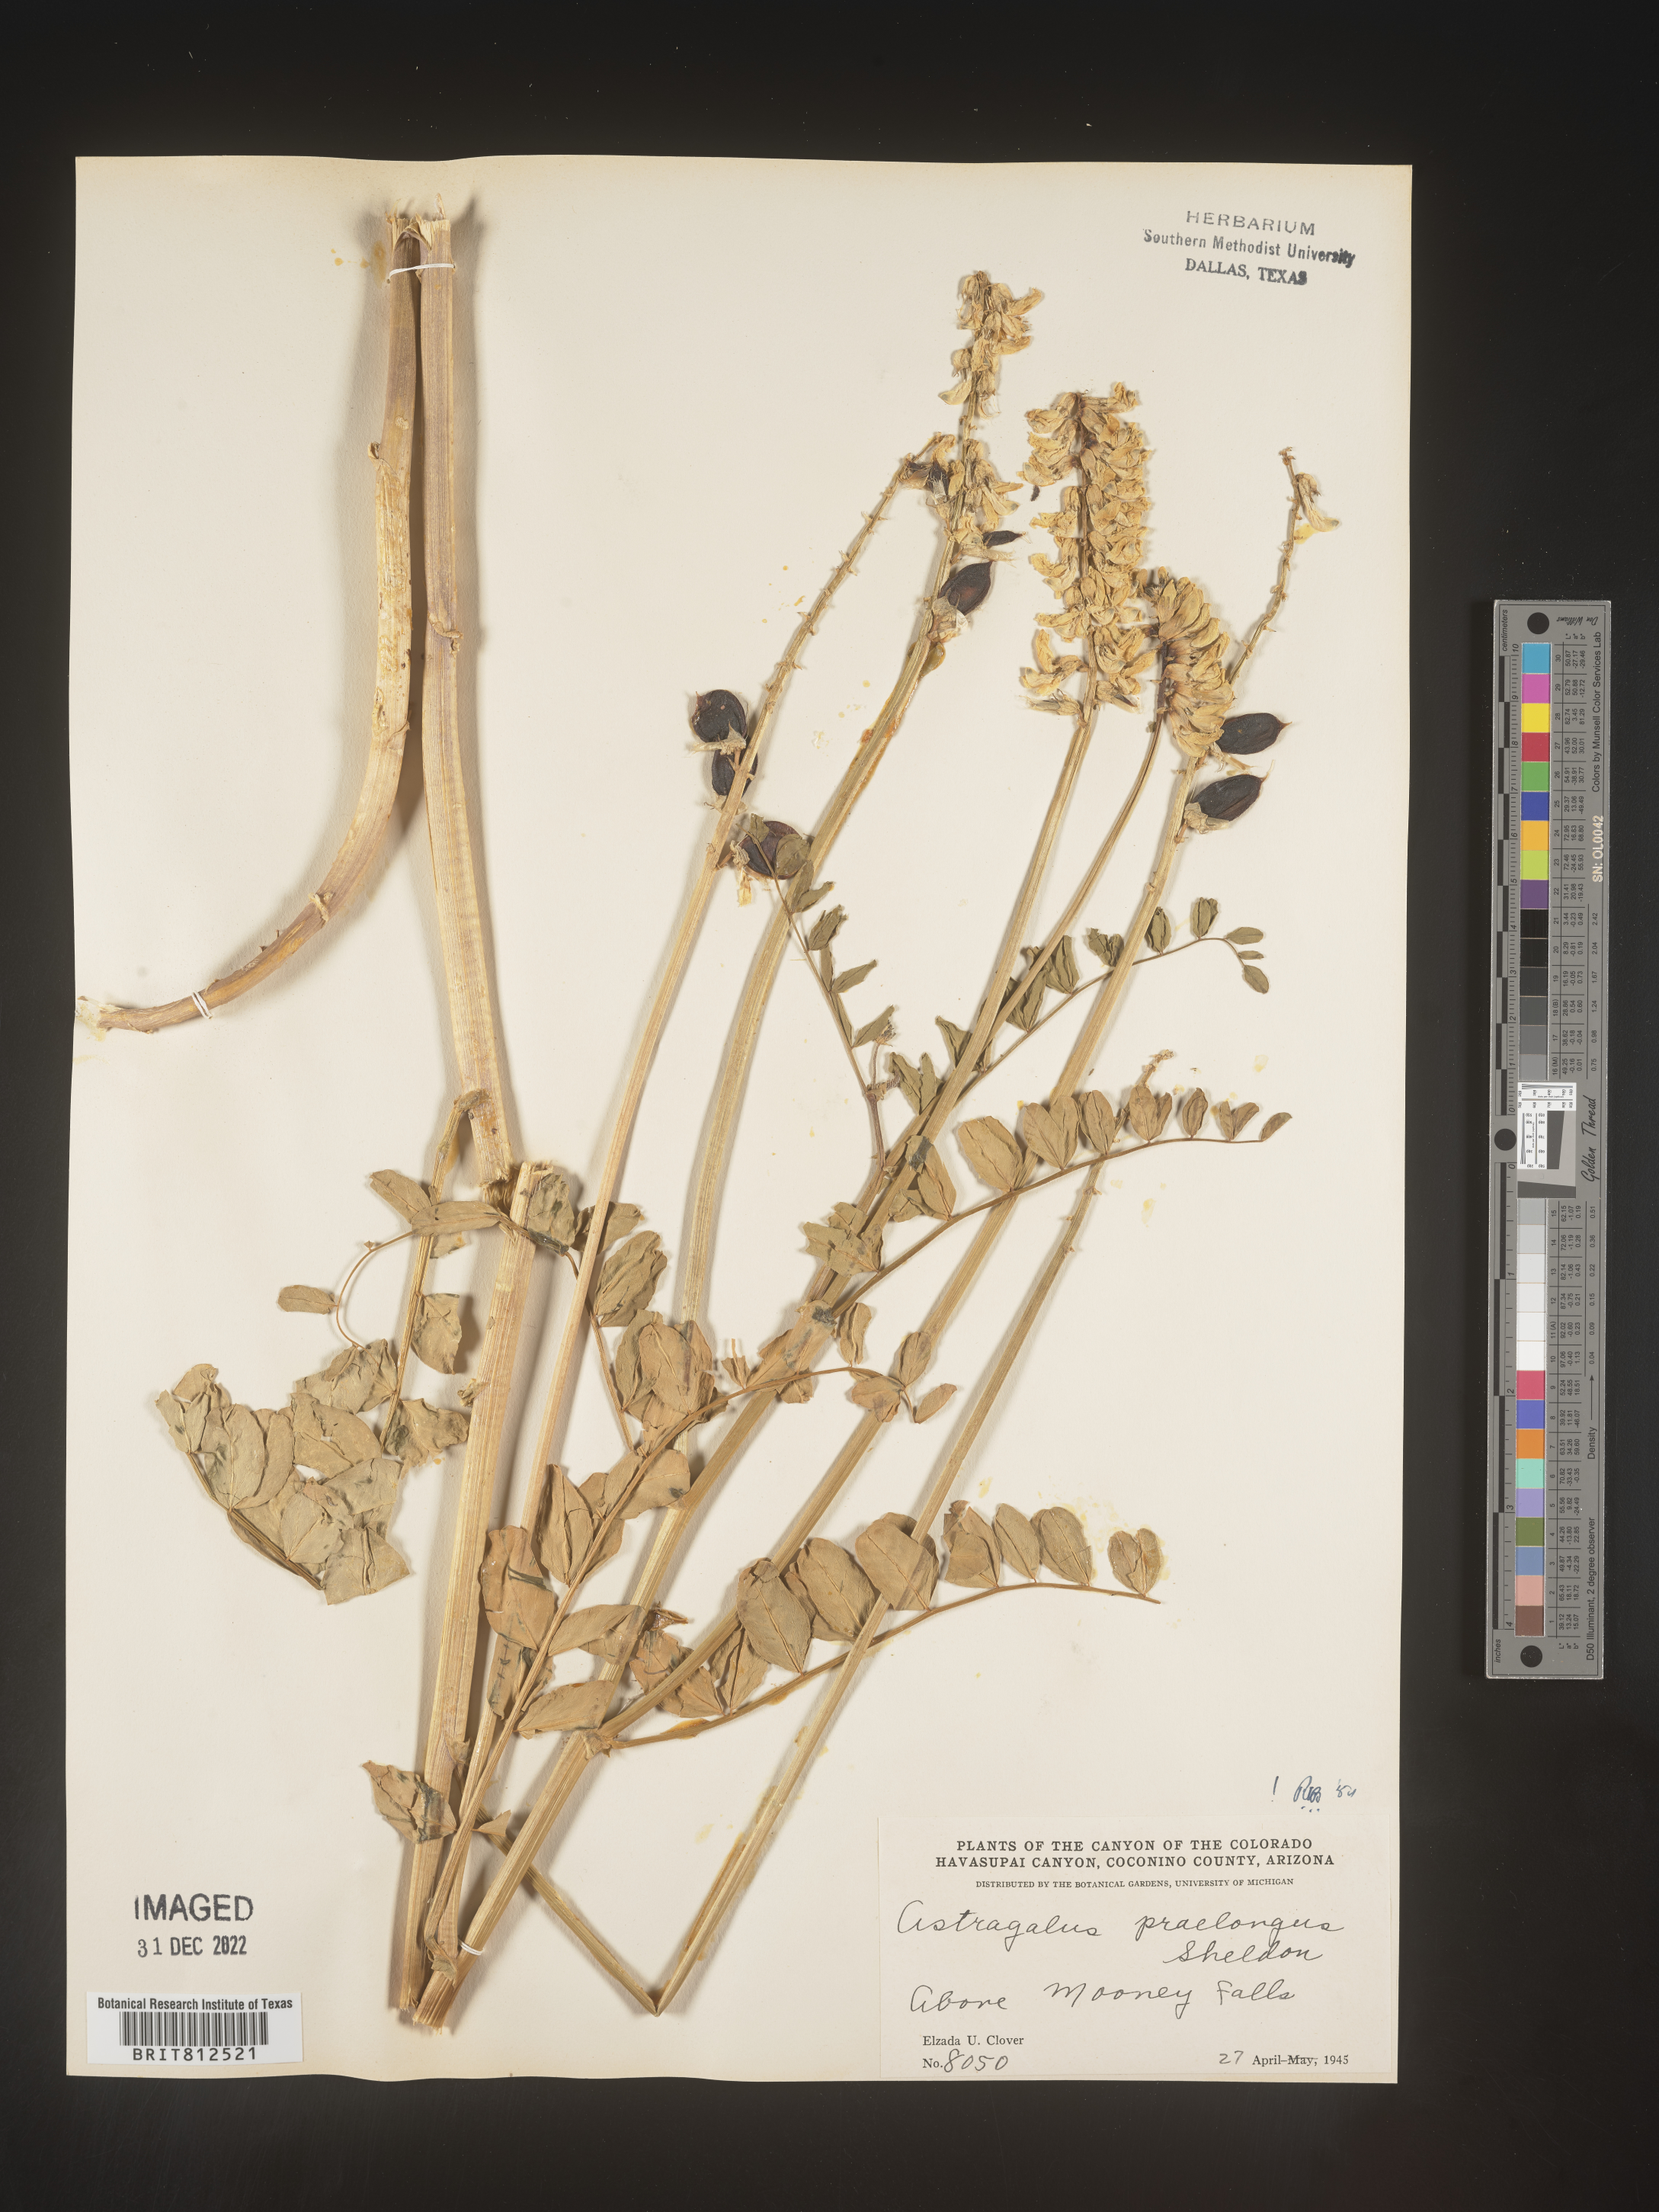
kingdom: Plantae
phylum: Tracheophyta
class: Magnoliopsida
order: Fabales
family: Fabaceae
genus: Astragalus
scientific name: Astragalus
